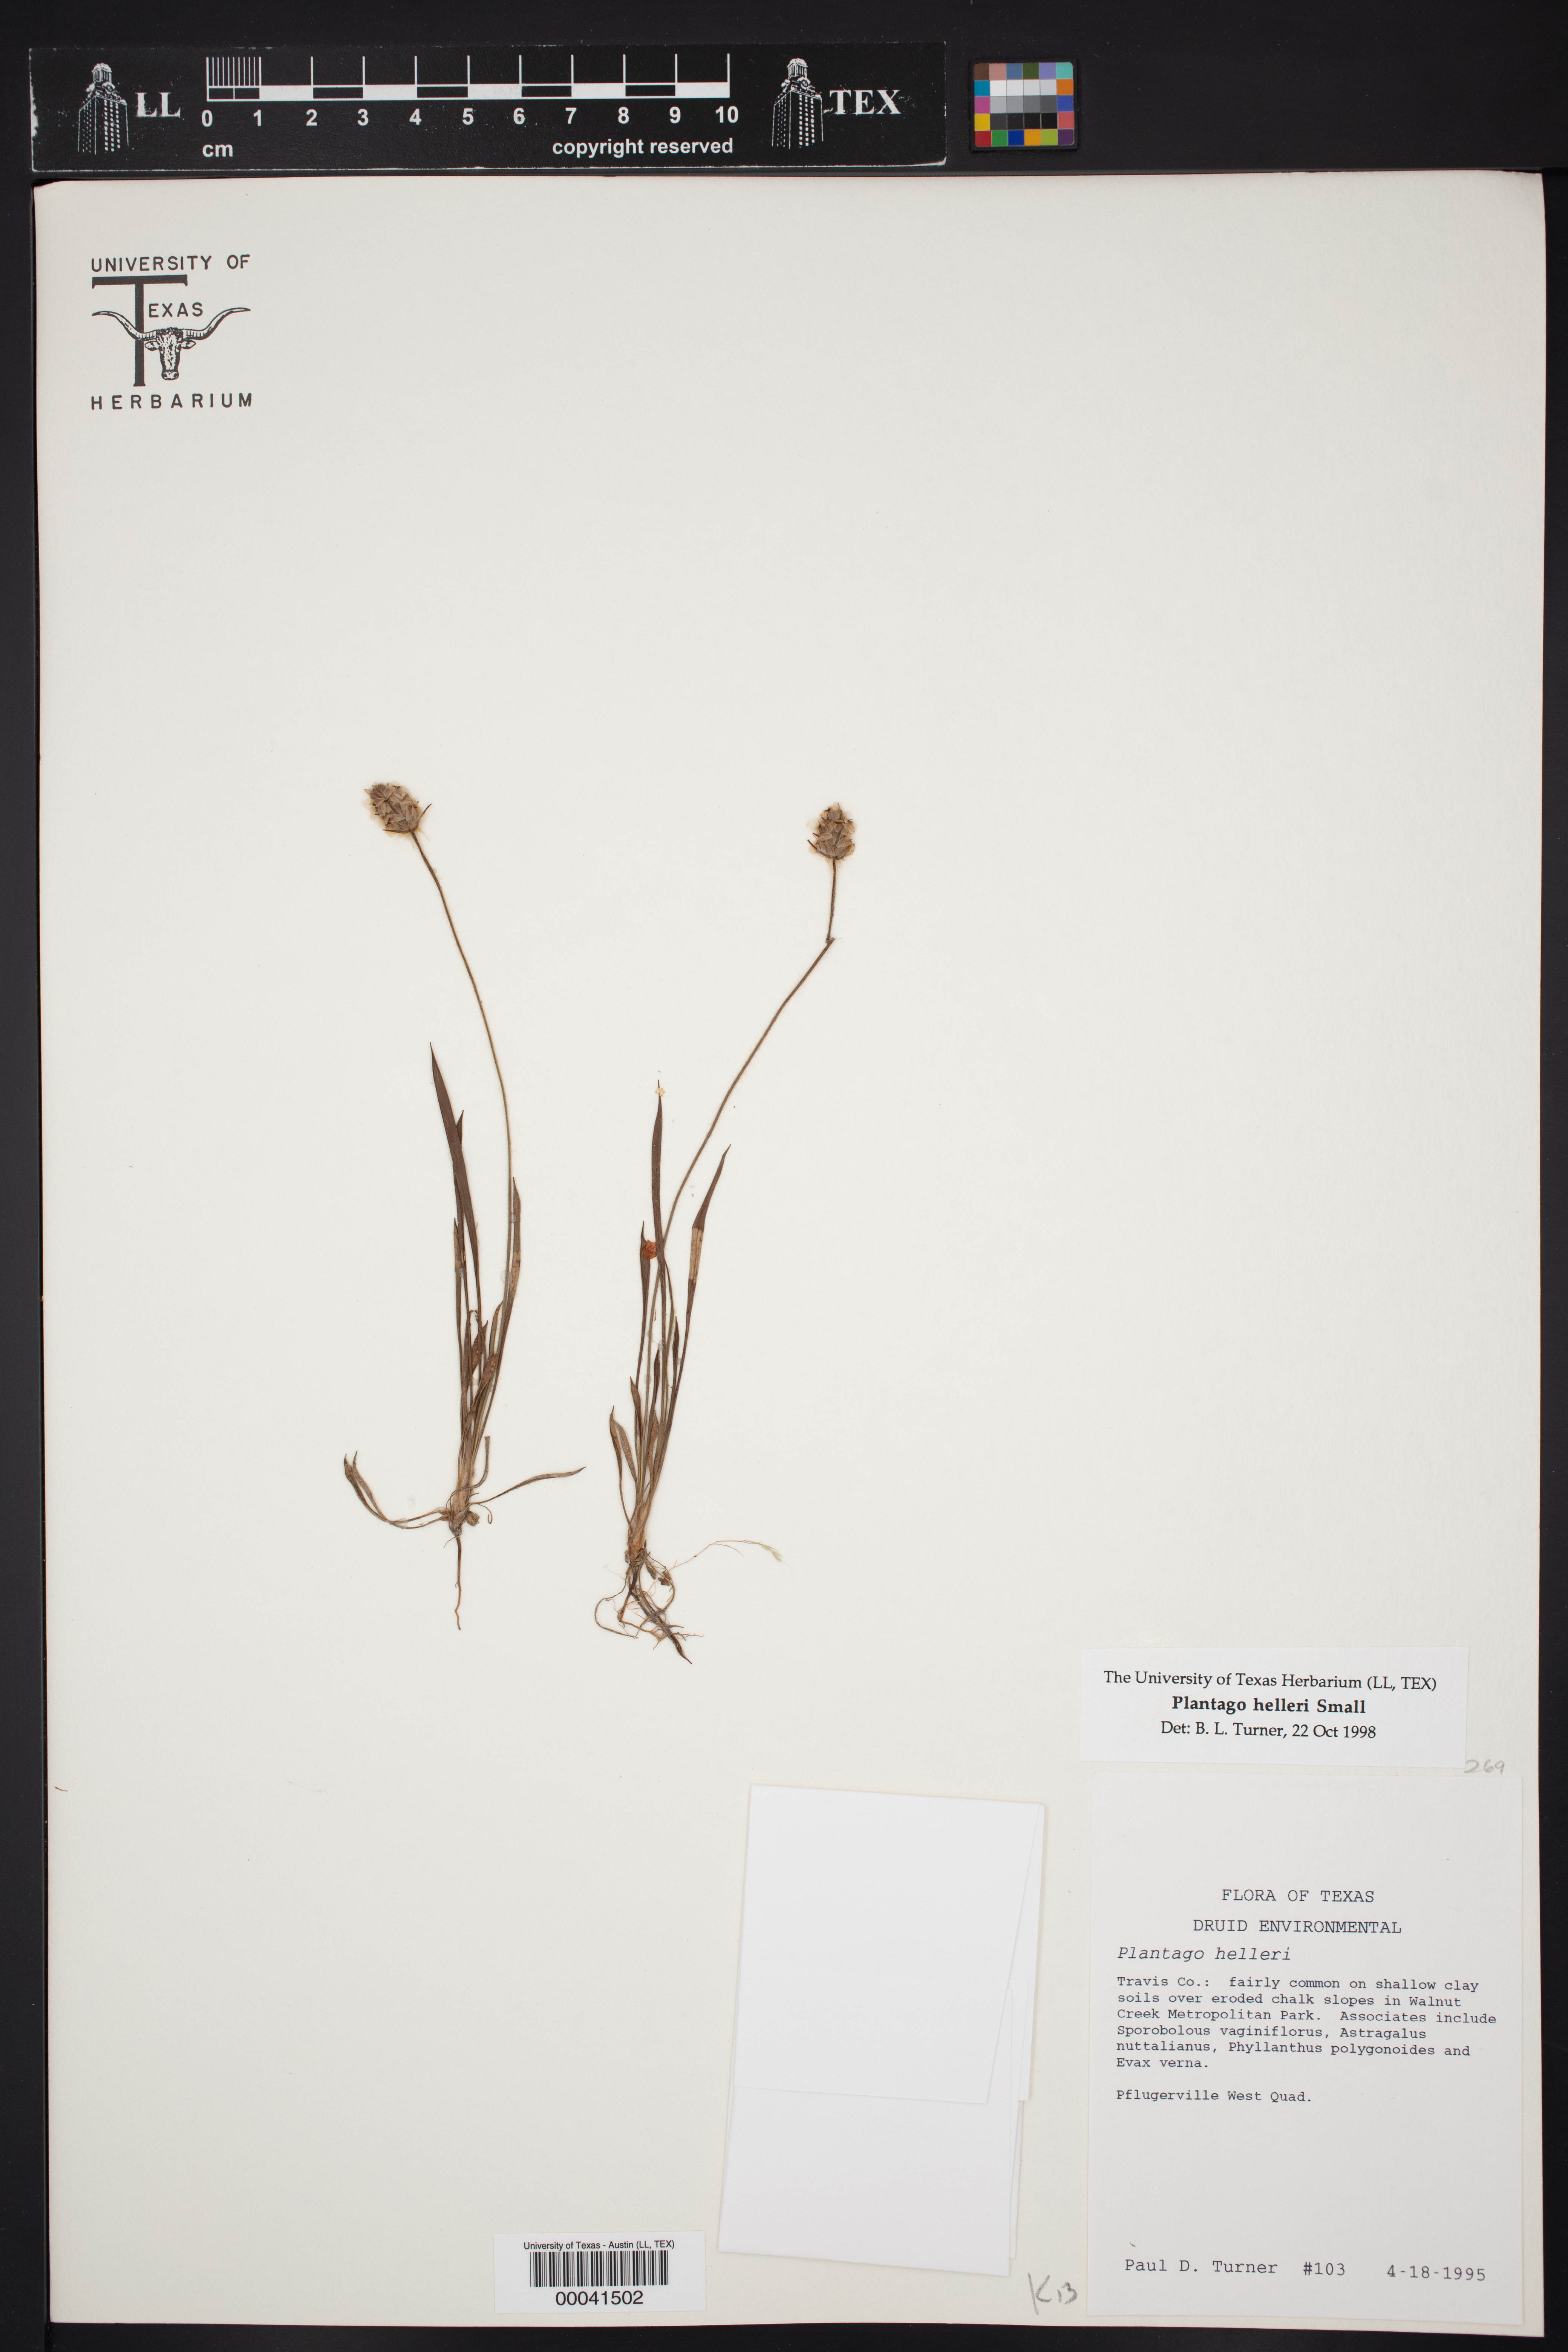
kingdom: Plantae
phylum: Tracheophyta
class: Magnoliopsida
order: Lamiales
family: Plantaginaceae
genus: Plantago
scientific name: Plantago helleri
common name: Heller's plantain
